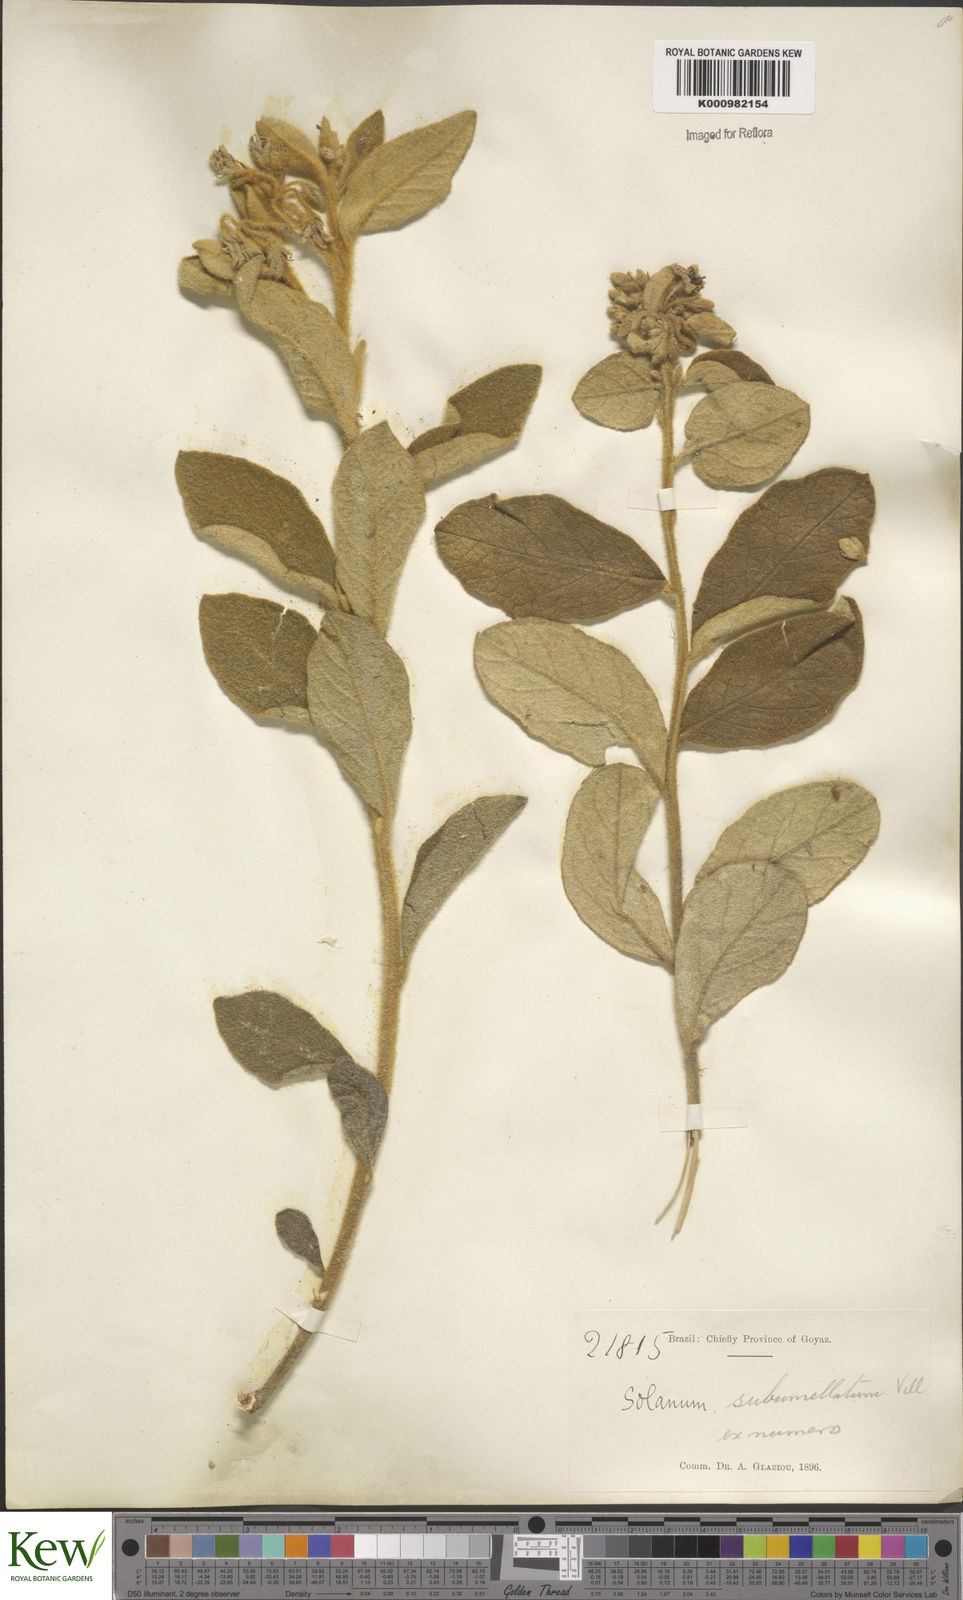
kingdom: Plantae
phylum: Tracheophyta
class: Magnoliopsida
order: Solanales
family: Solanaceae
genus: Solanum
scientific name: Solanum subumbellatum
